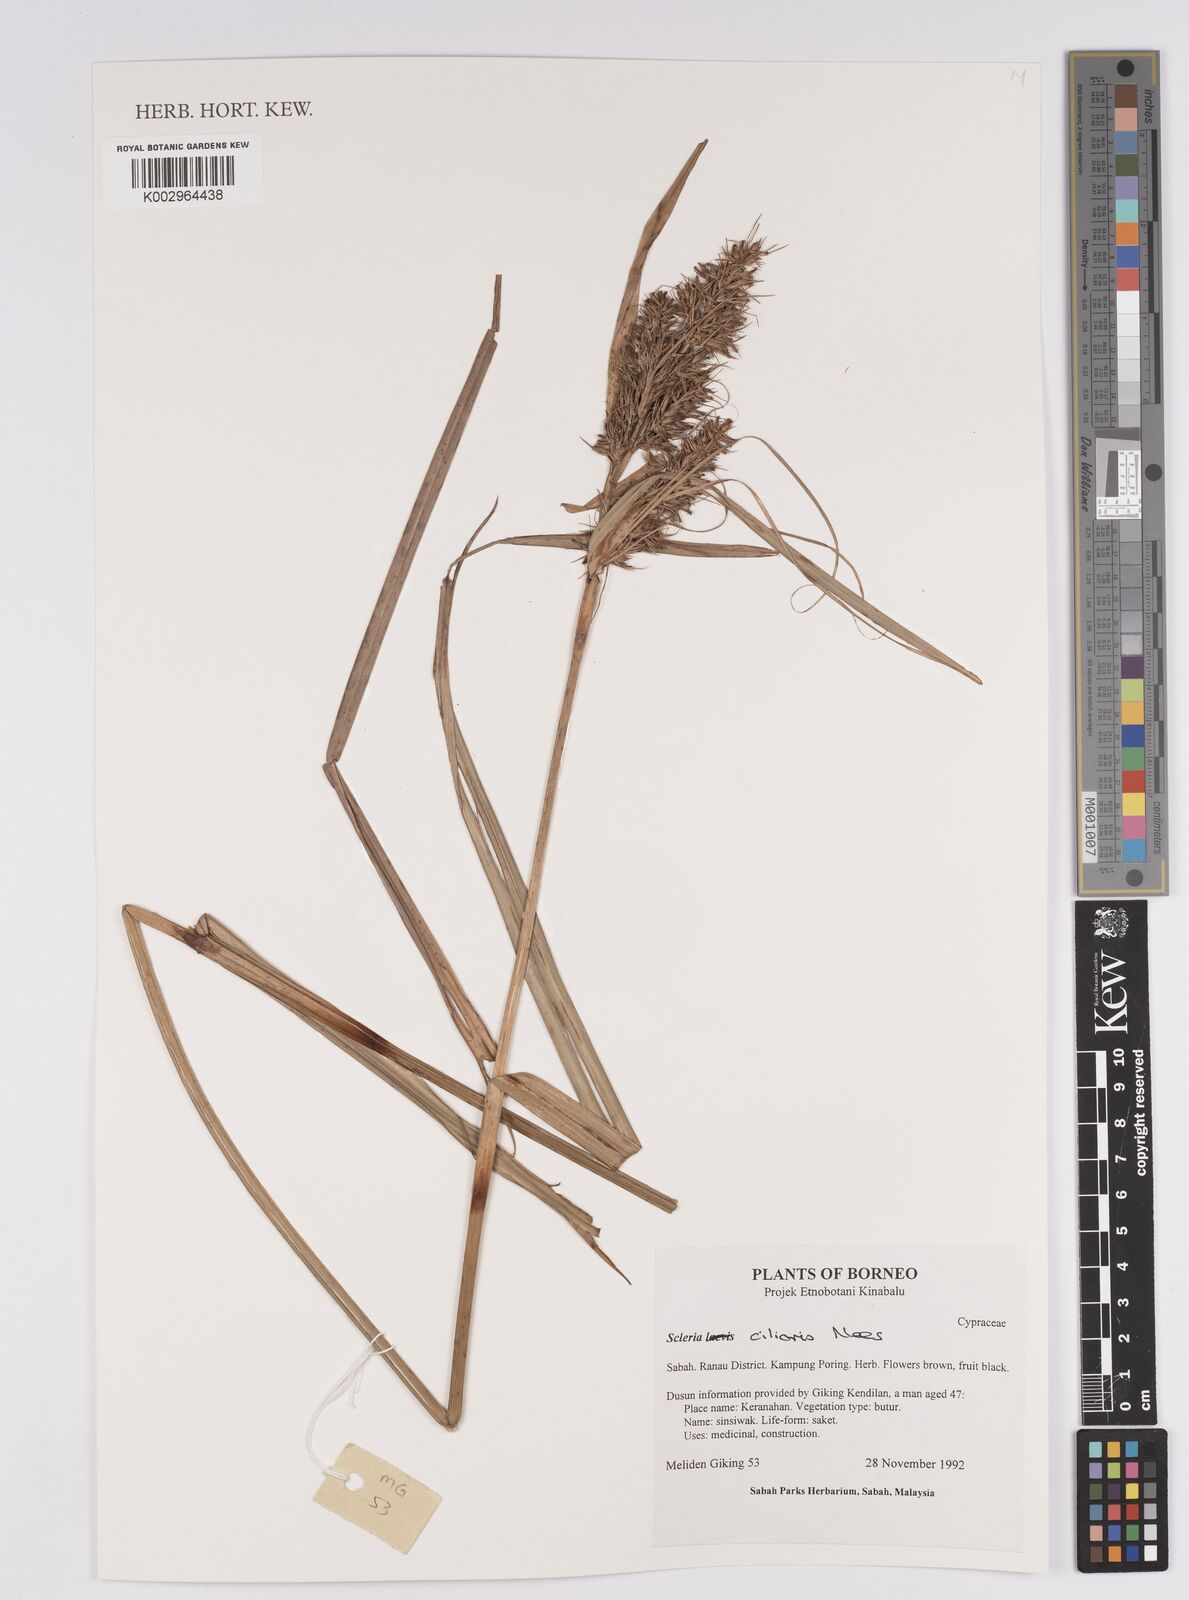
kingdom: Plantae
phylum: Tracheophyta
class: Liliopsida
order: Poales
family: Cyperaceae
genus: Scleria
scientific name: Scleria ciliaris
